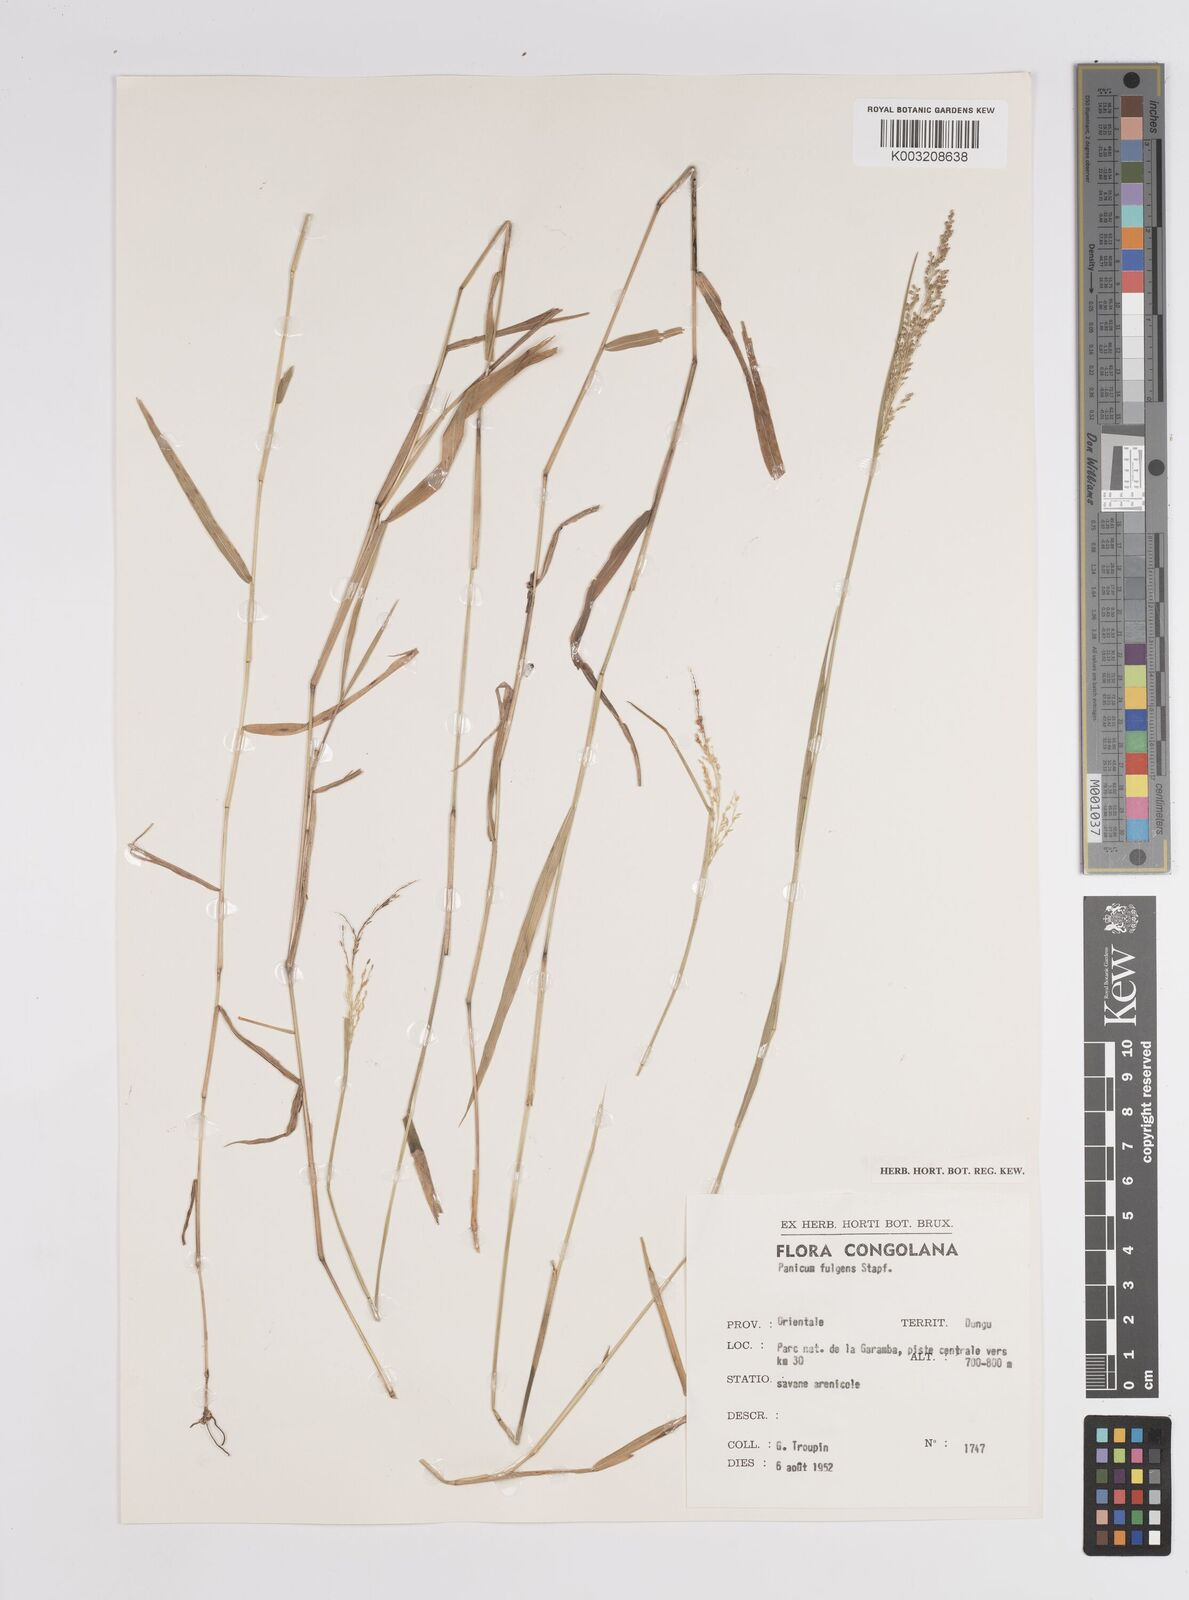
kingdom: Plantae
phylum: Tracheophyta
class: Liliopsida
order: Poales
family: Poaceae
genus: Trichanthecium
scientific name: Trichanthecium nervatum
